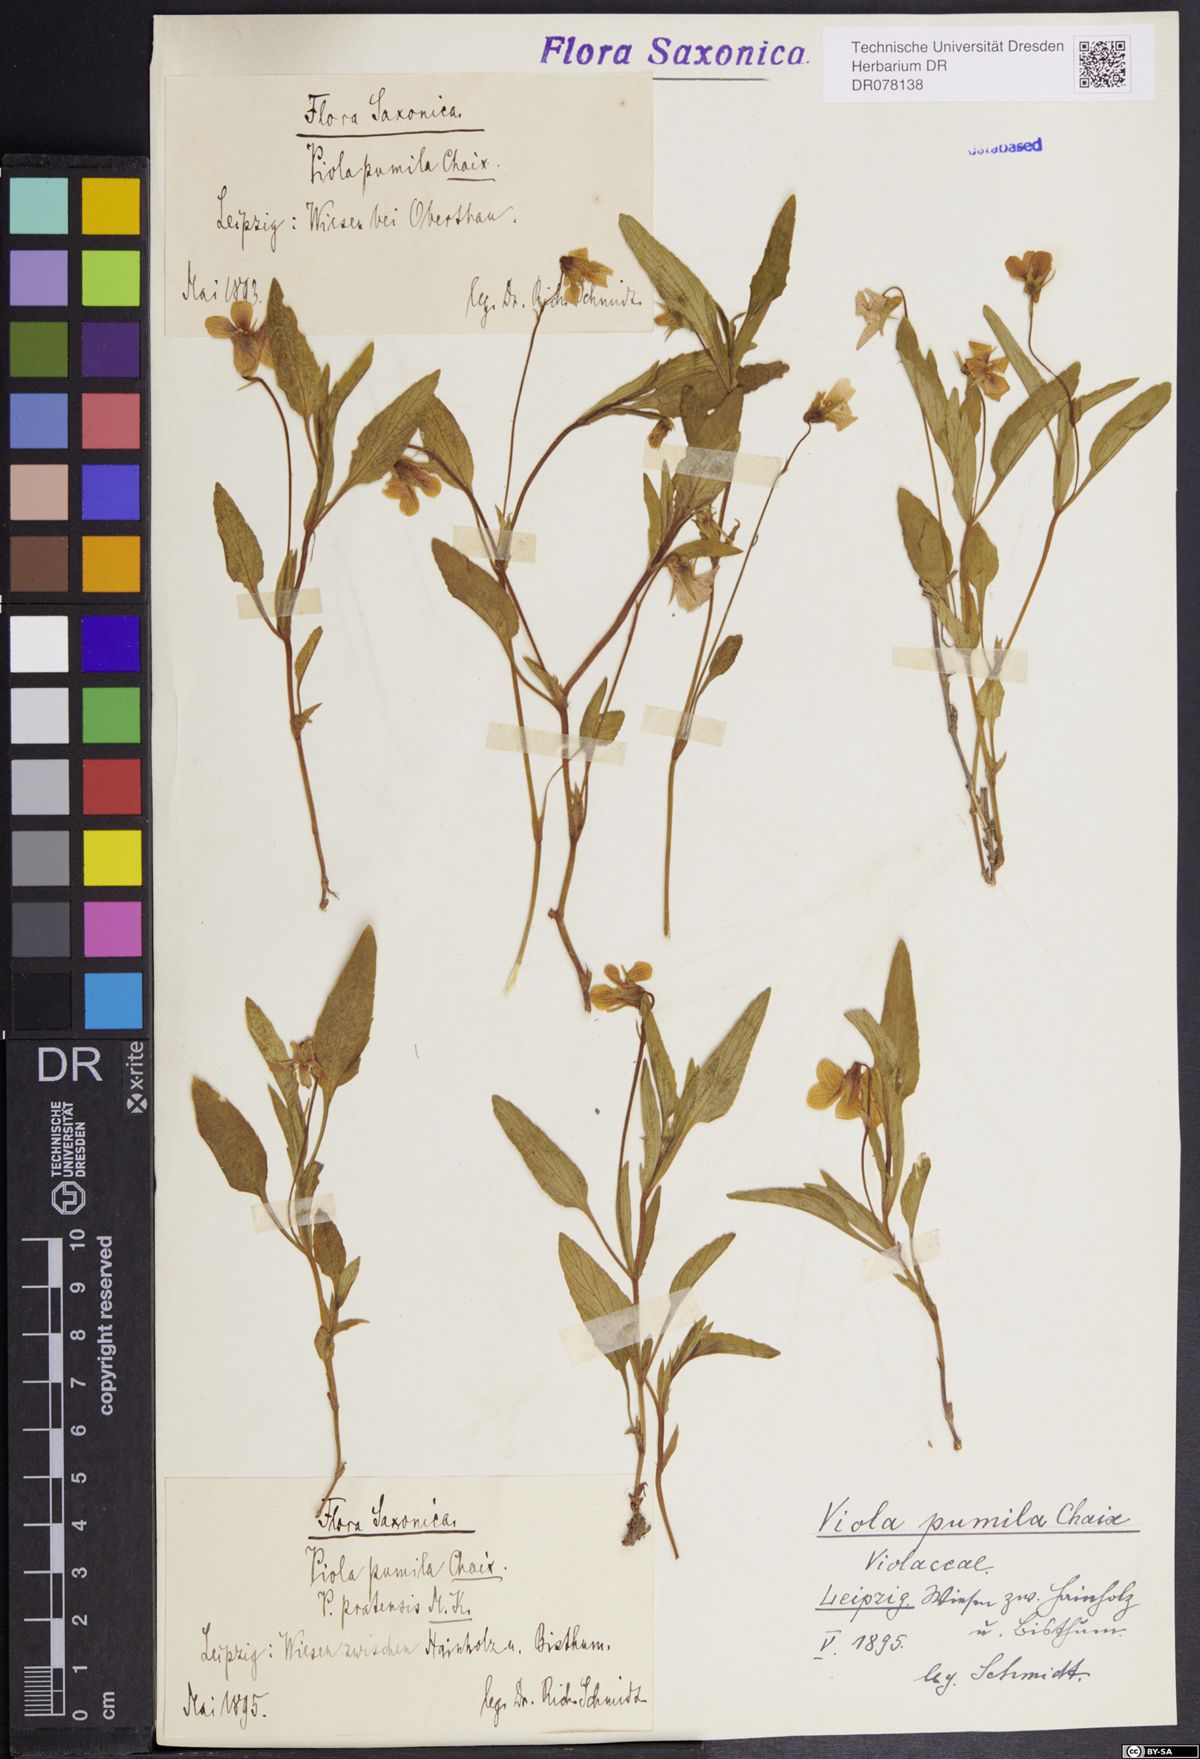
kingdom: Plantae
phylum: Tracheophyta
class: Magnoliopsida
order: Malpighiales
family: Violaceae
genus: Viola
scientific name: Viola pumila
